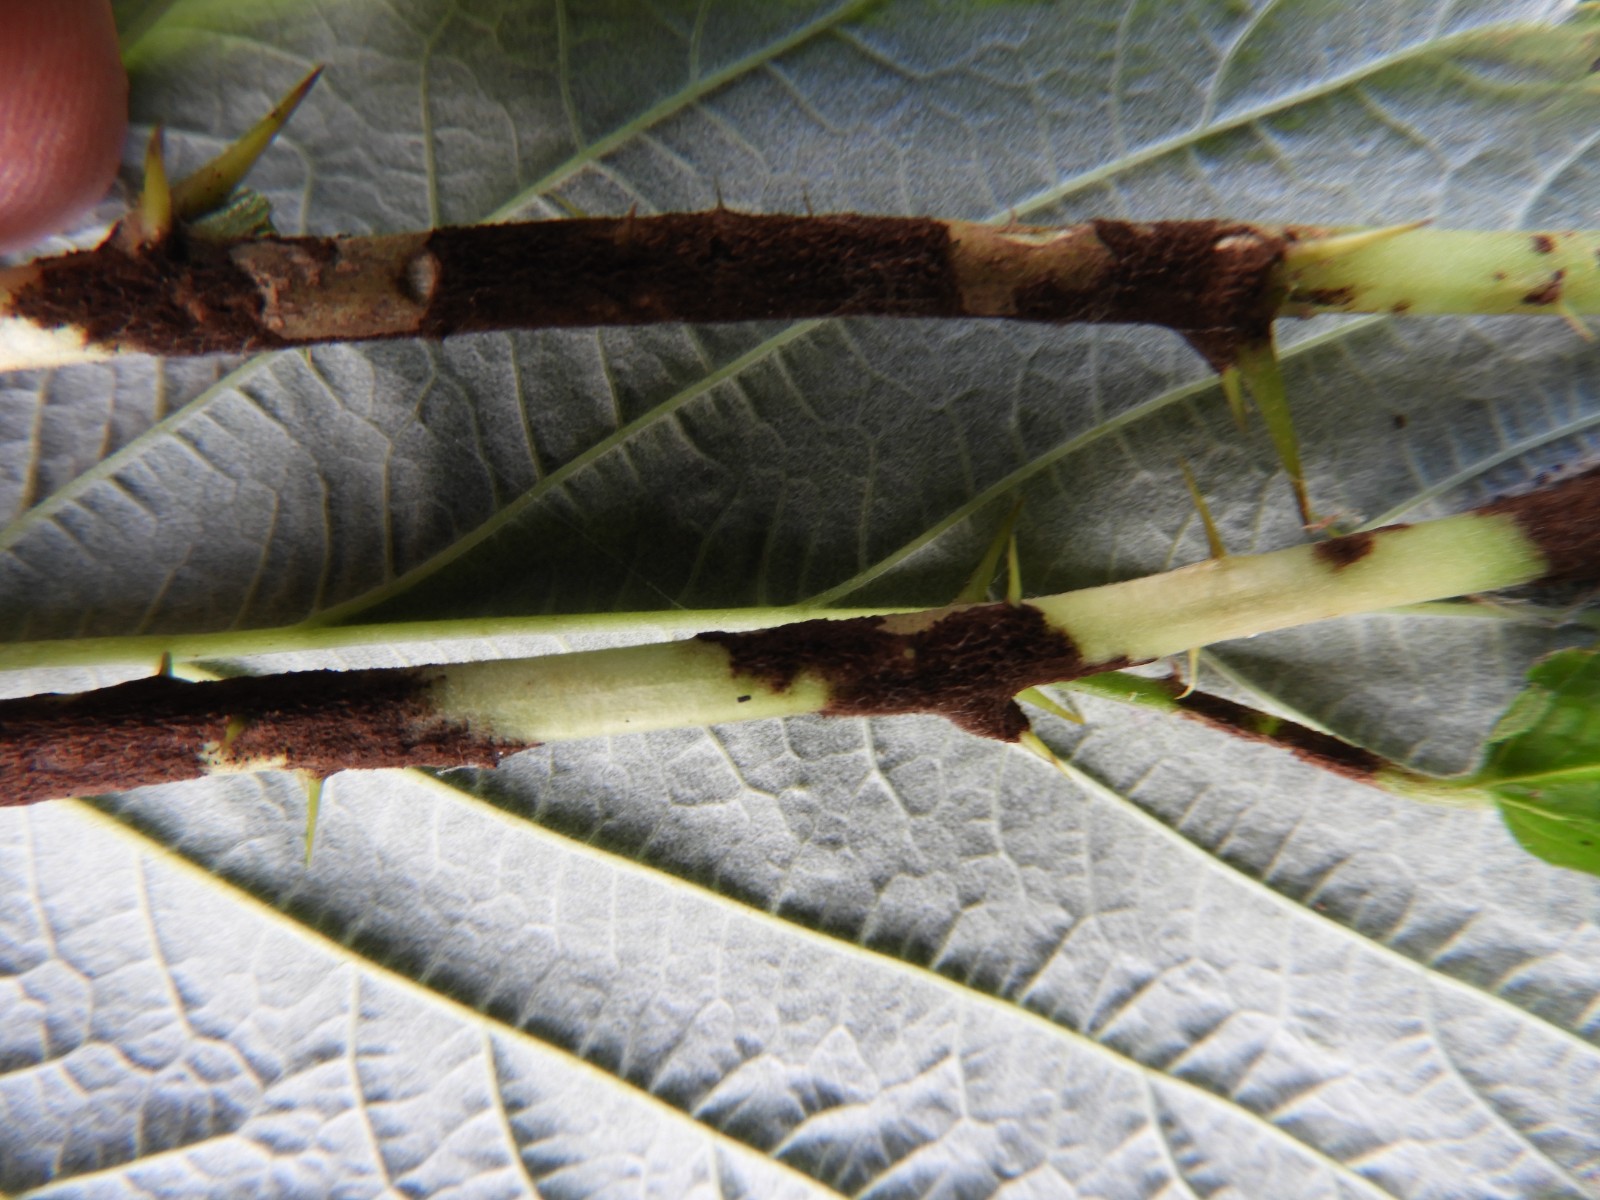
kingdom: Fungi
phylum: Ascomycota
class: Leotiomycetes
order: Helotiales
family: Erysiphaceae
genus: Podosphaera
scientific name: Podosphaera mors-uvae
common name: American gooseberry mildew
